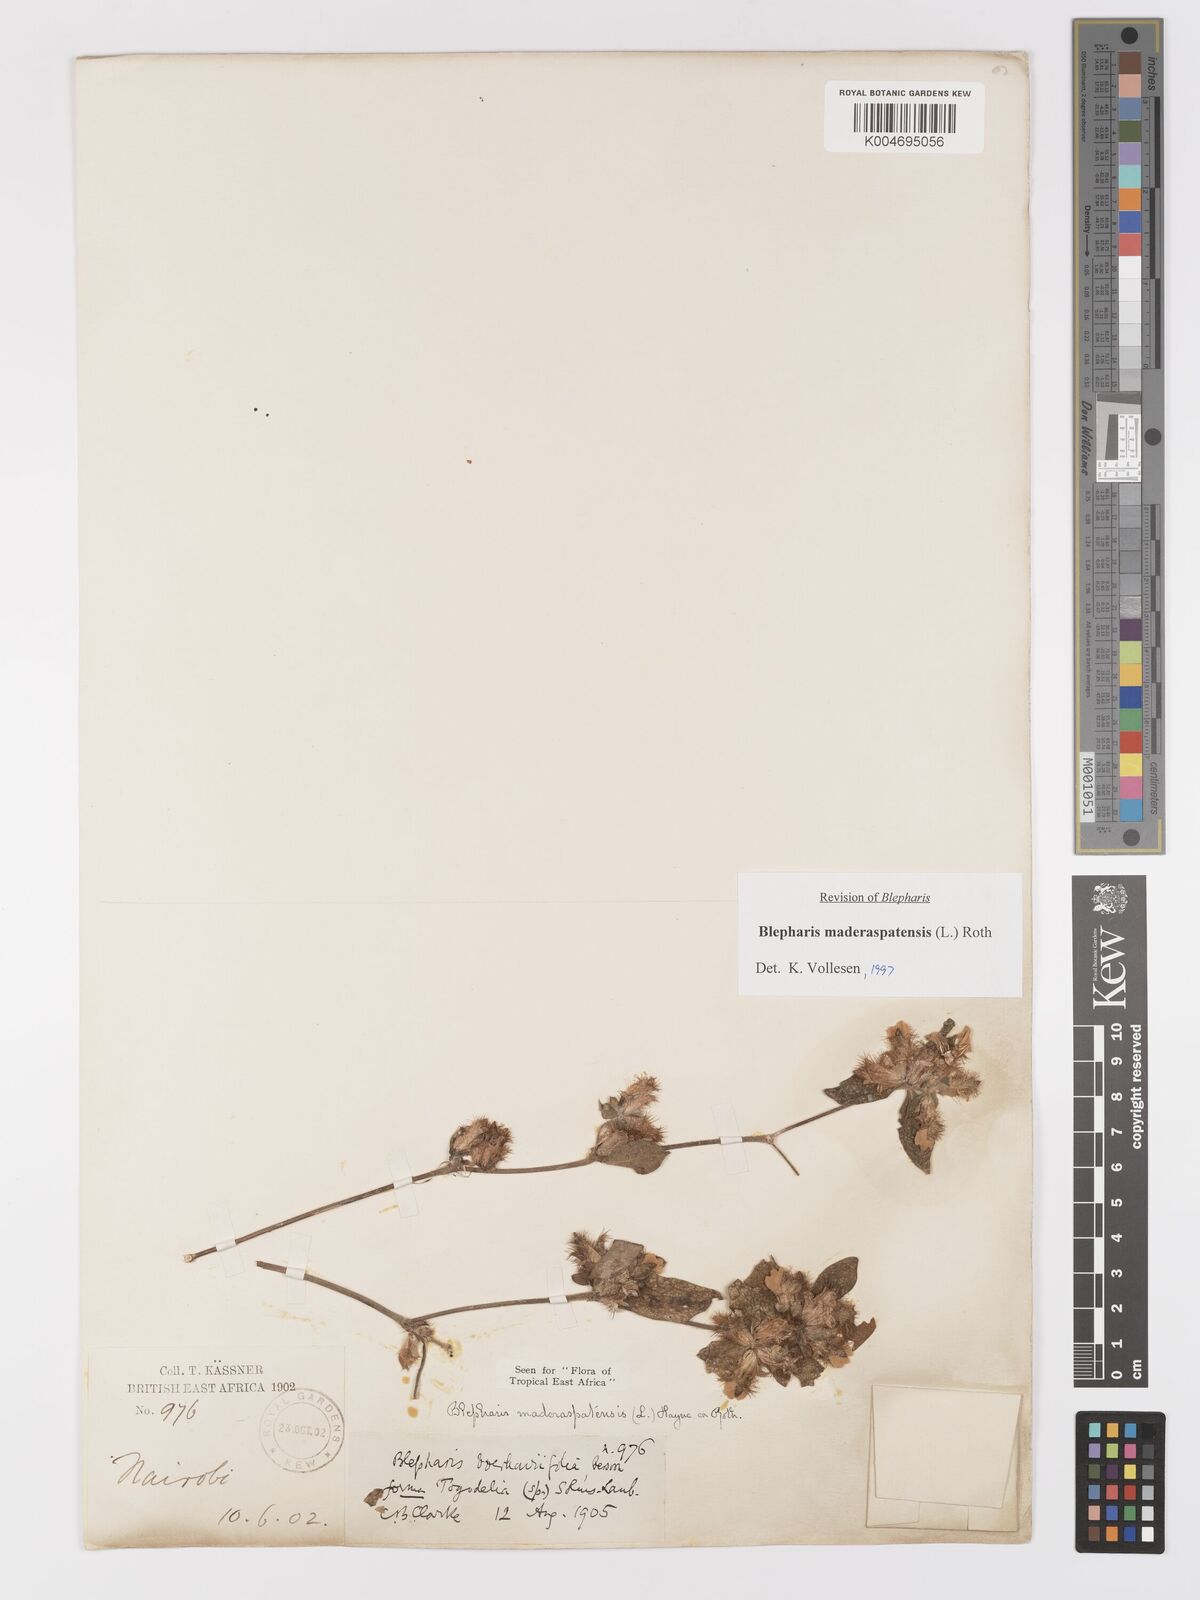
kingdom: Plantae
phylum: Tracheophyta
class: Magnoliopsida
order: Lamiales
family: Acanthaceae
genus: Blepharis
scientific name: Blepharis maderaspatensis
